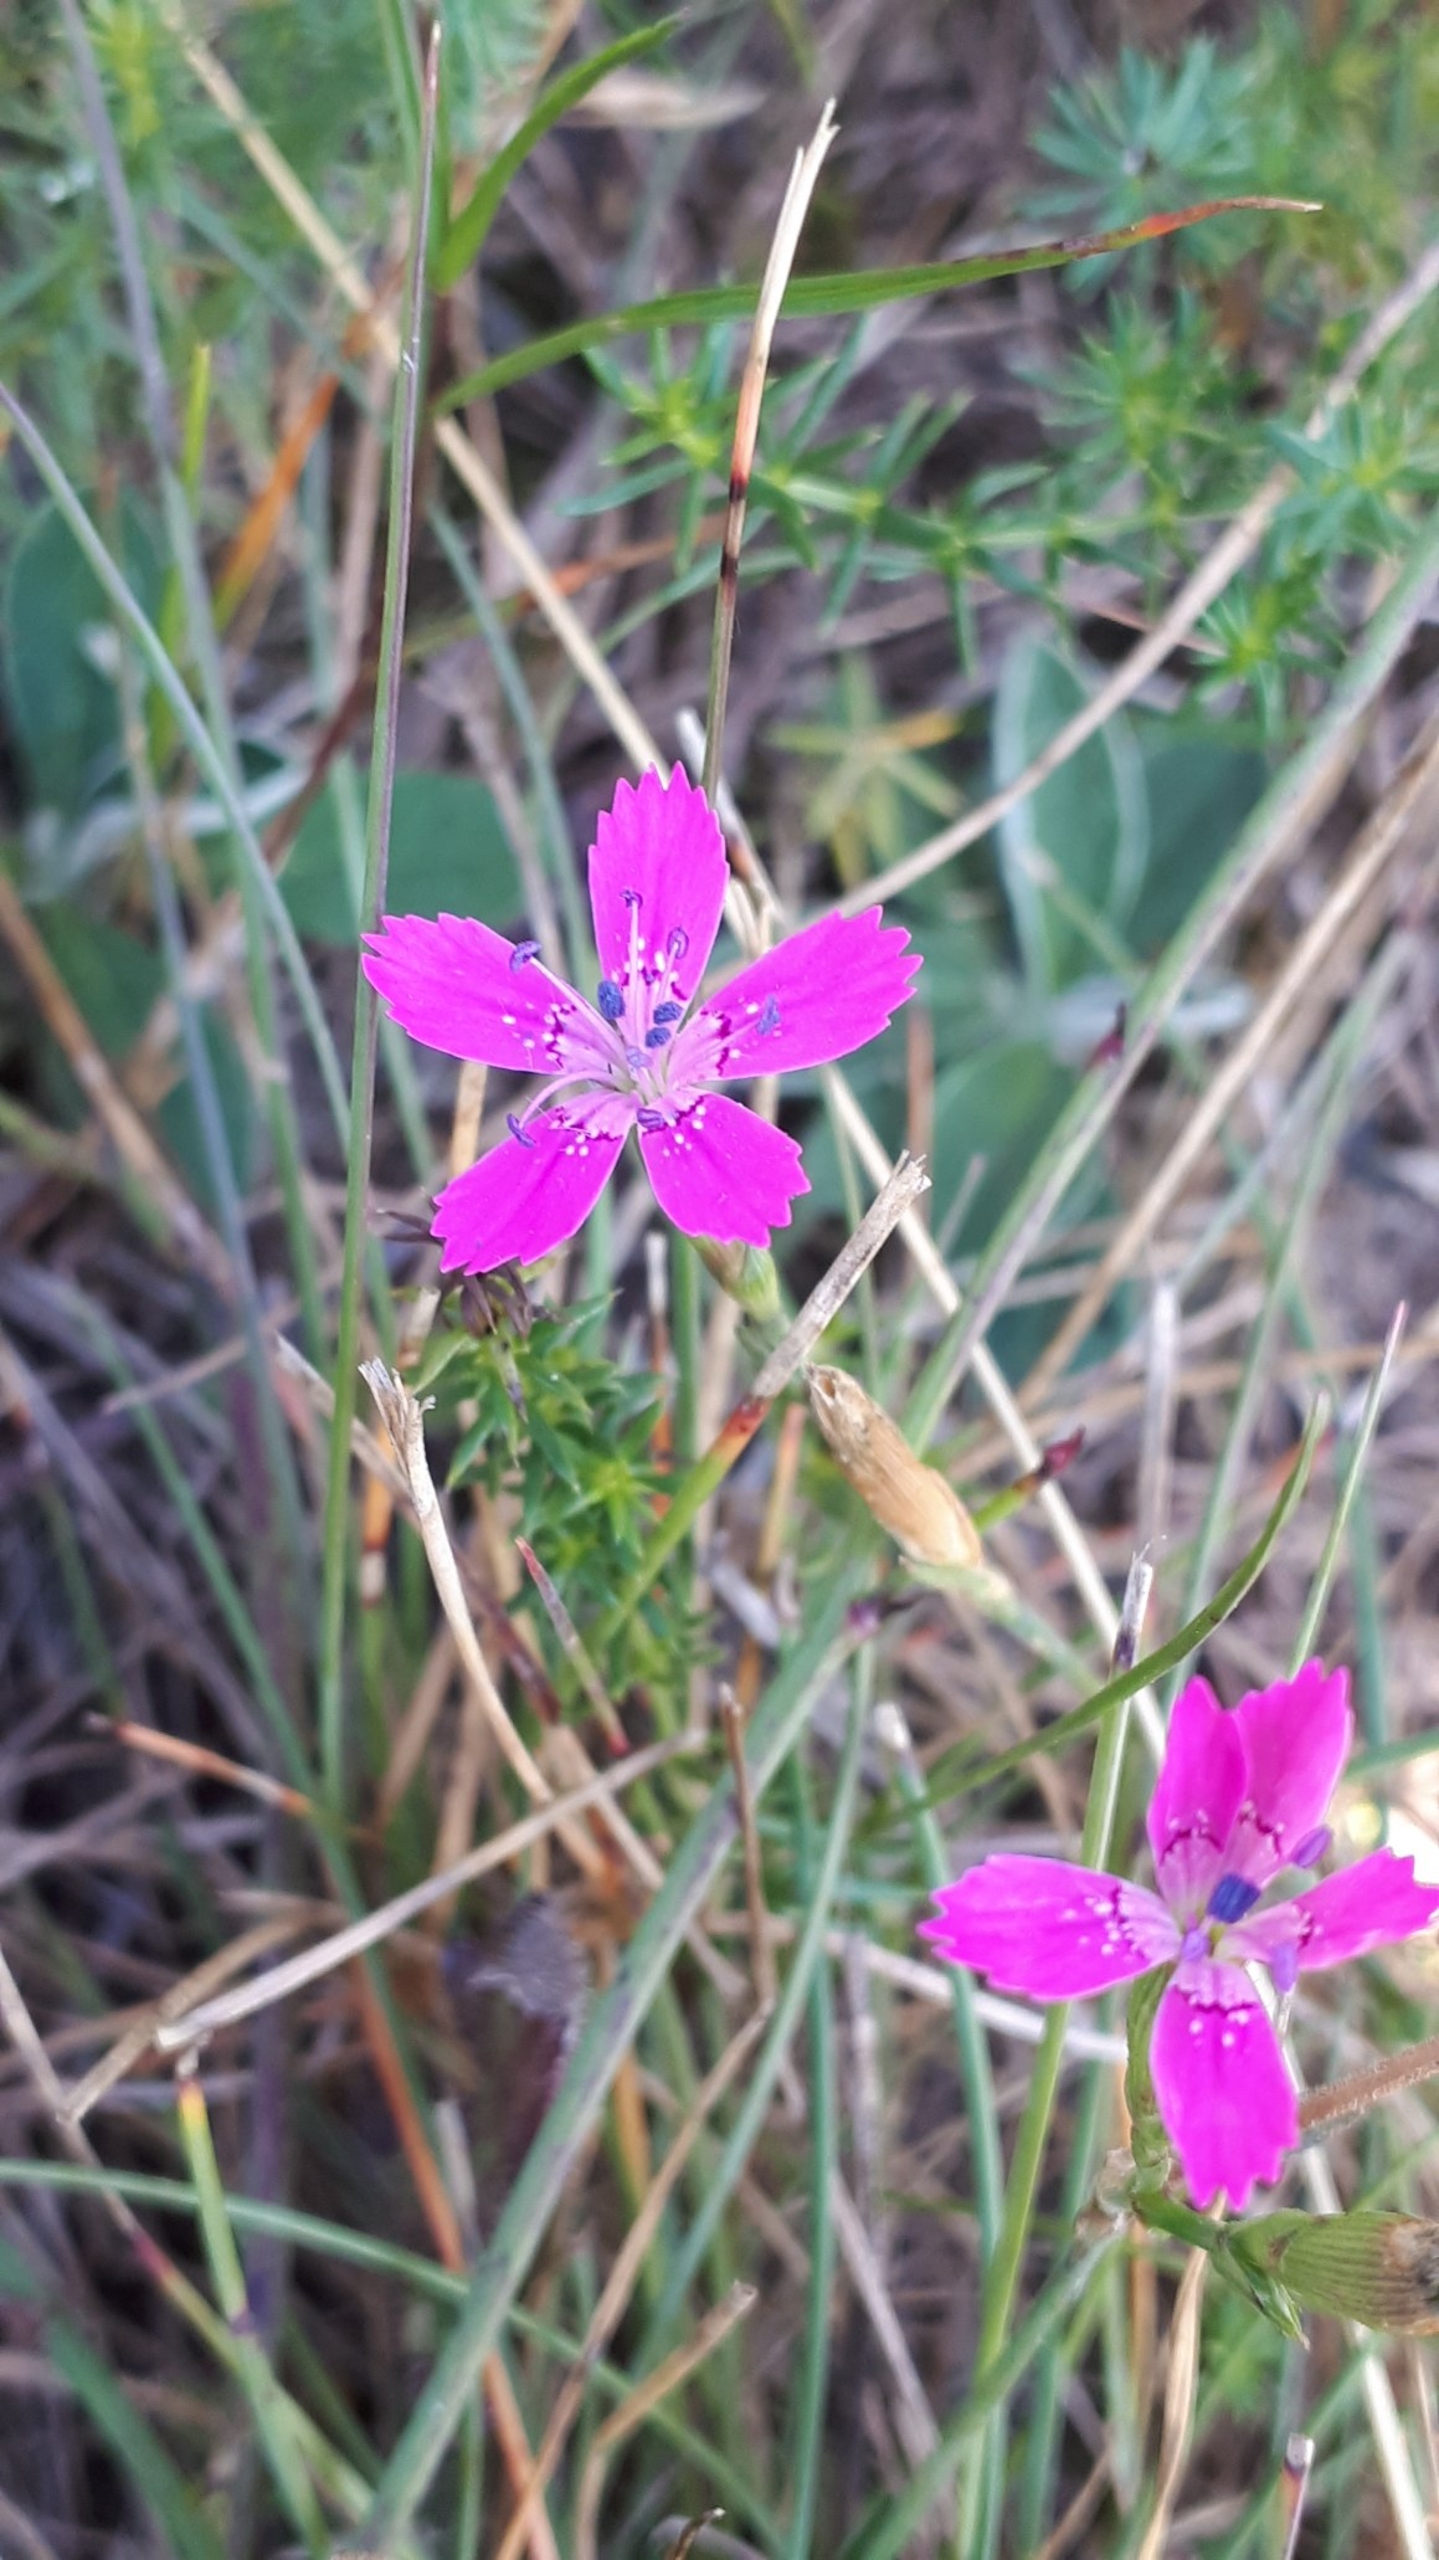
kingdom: Plantae
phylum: Tracheophyta
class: Magnoliopsida
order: Caryophyllales
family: Caryophyllaceae
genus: Dianthus
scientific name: Dianthus deltoides
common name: Bakke-nellike
